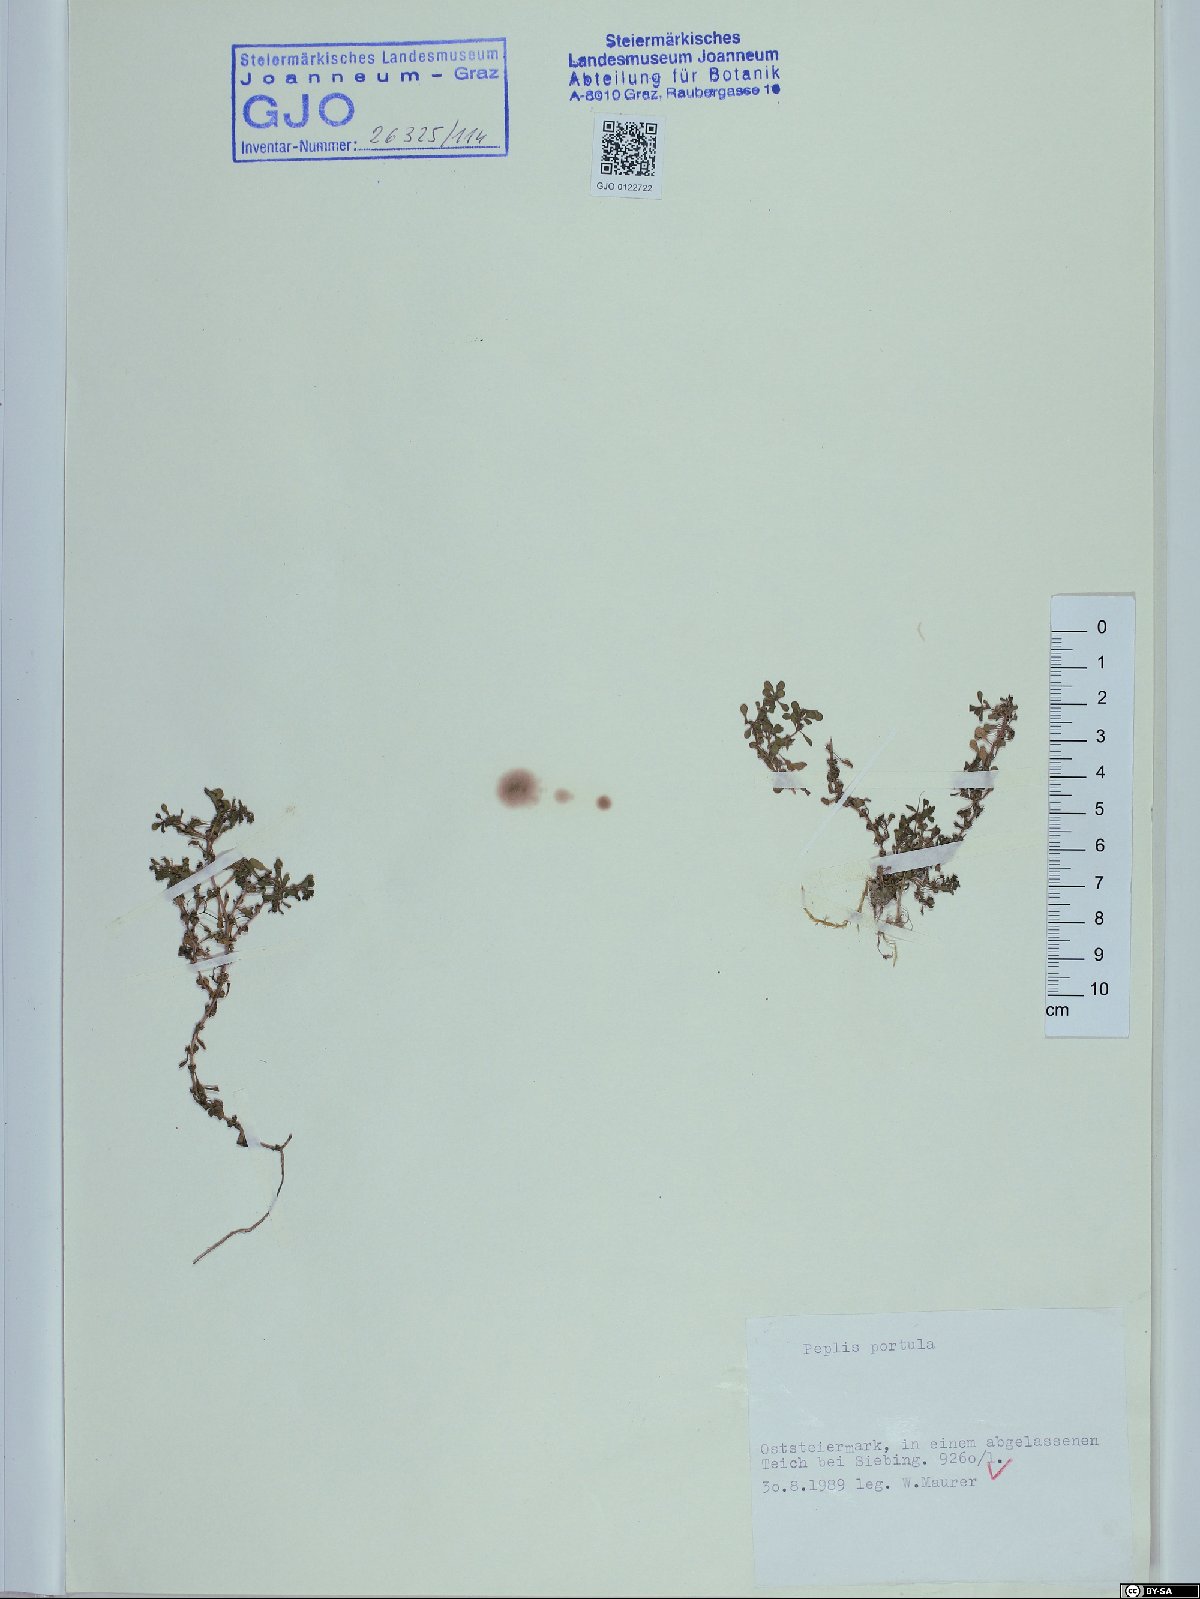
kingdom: Plantae
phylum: Tracheophyta
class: Magnoliopsida
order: Myrtales
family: Lythraceae
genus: Lythrum
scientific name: Lythrum portula
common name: Water purslane
